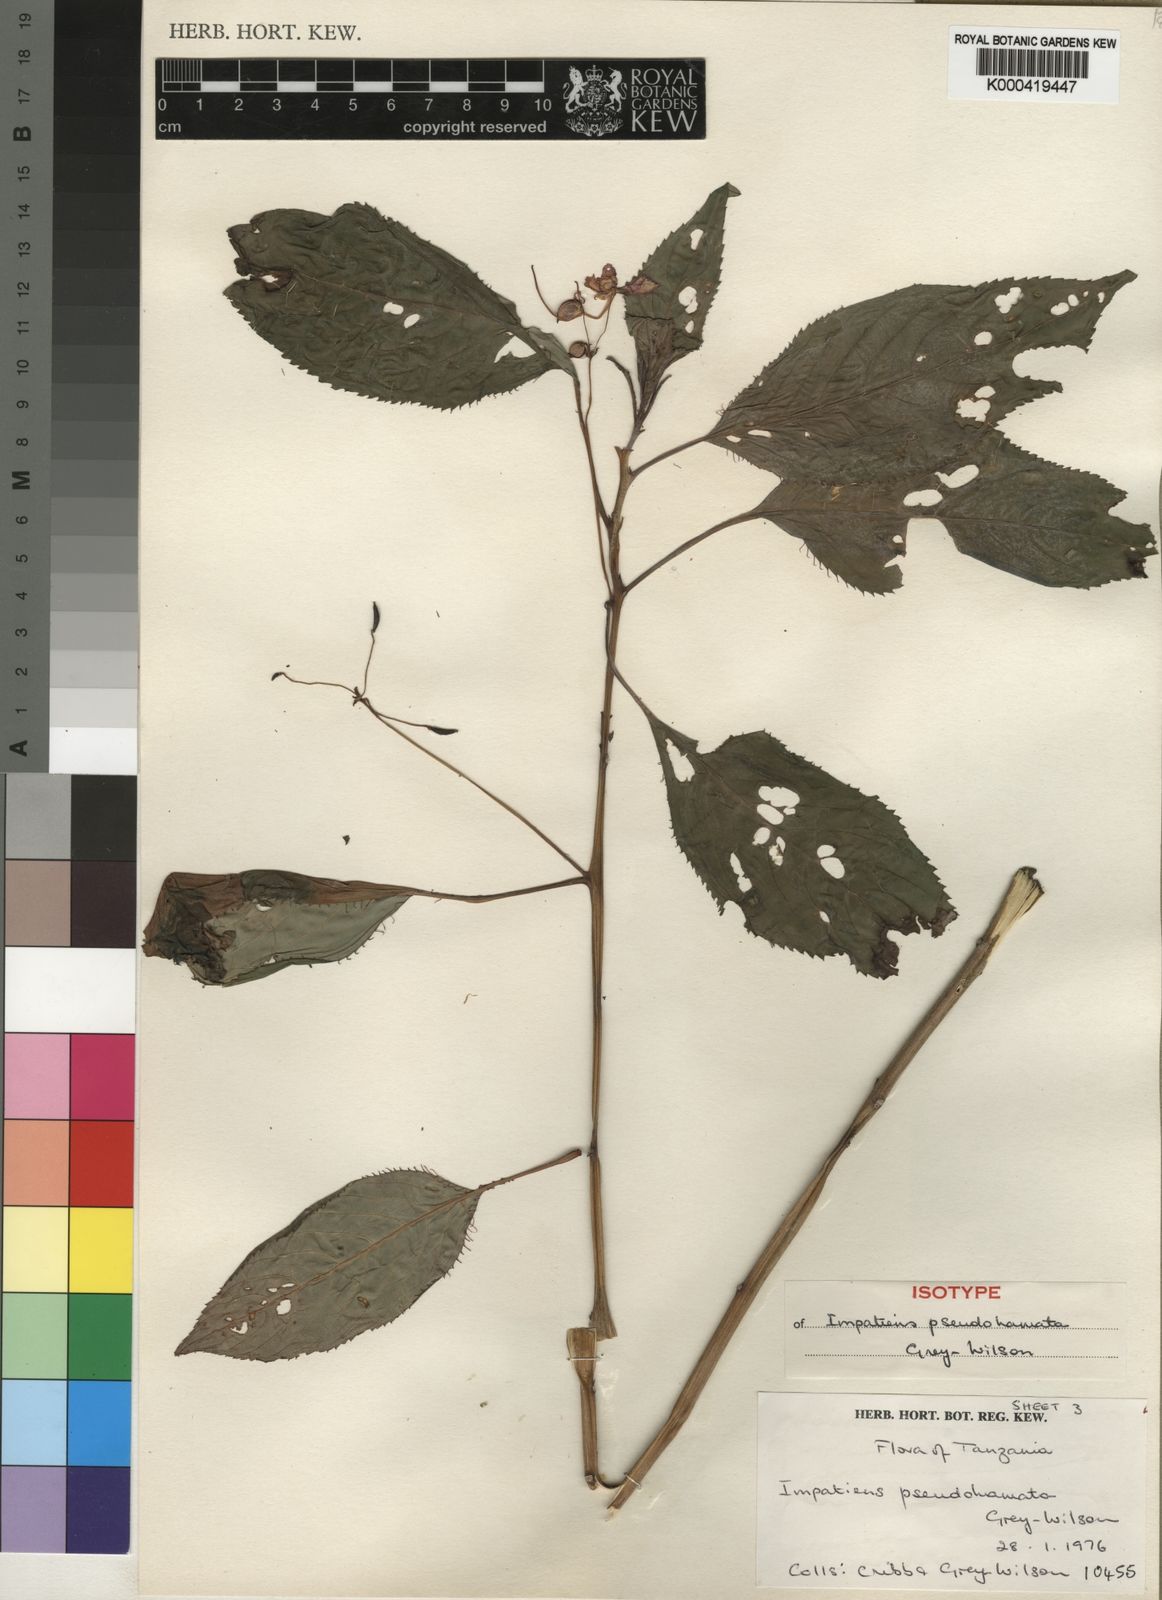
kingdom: Plantae
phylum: Tracheophyta
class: Magnoliopsida
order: Ericales
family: Balsaminaceae
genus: Impatiens
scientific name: Impatiens pseudohamata
